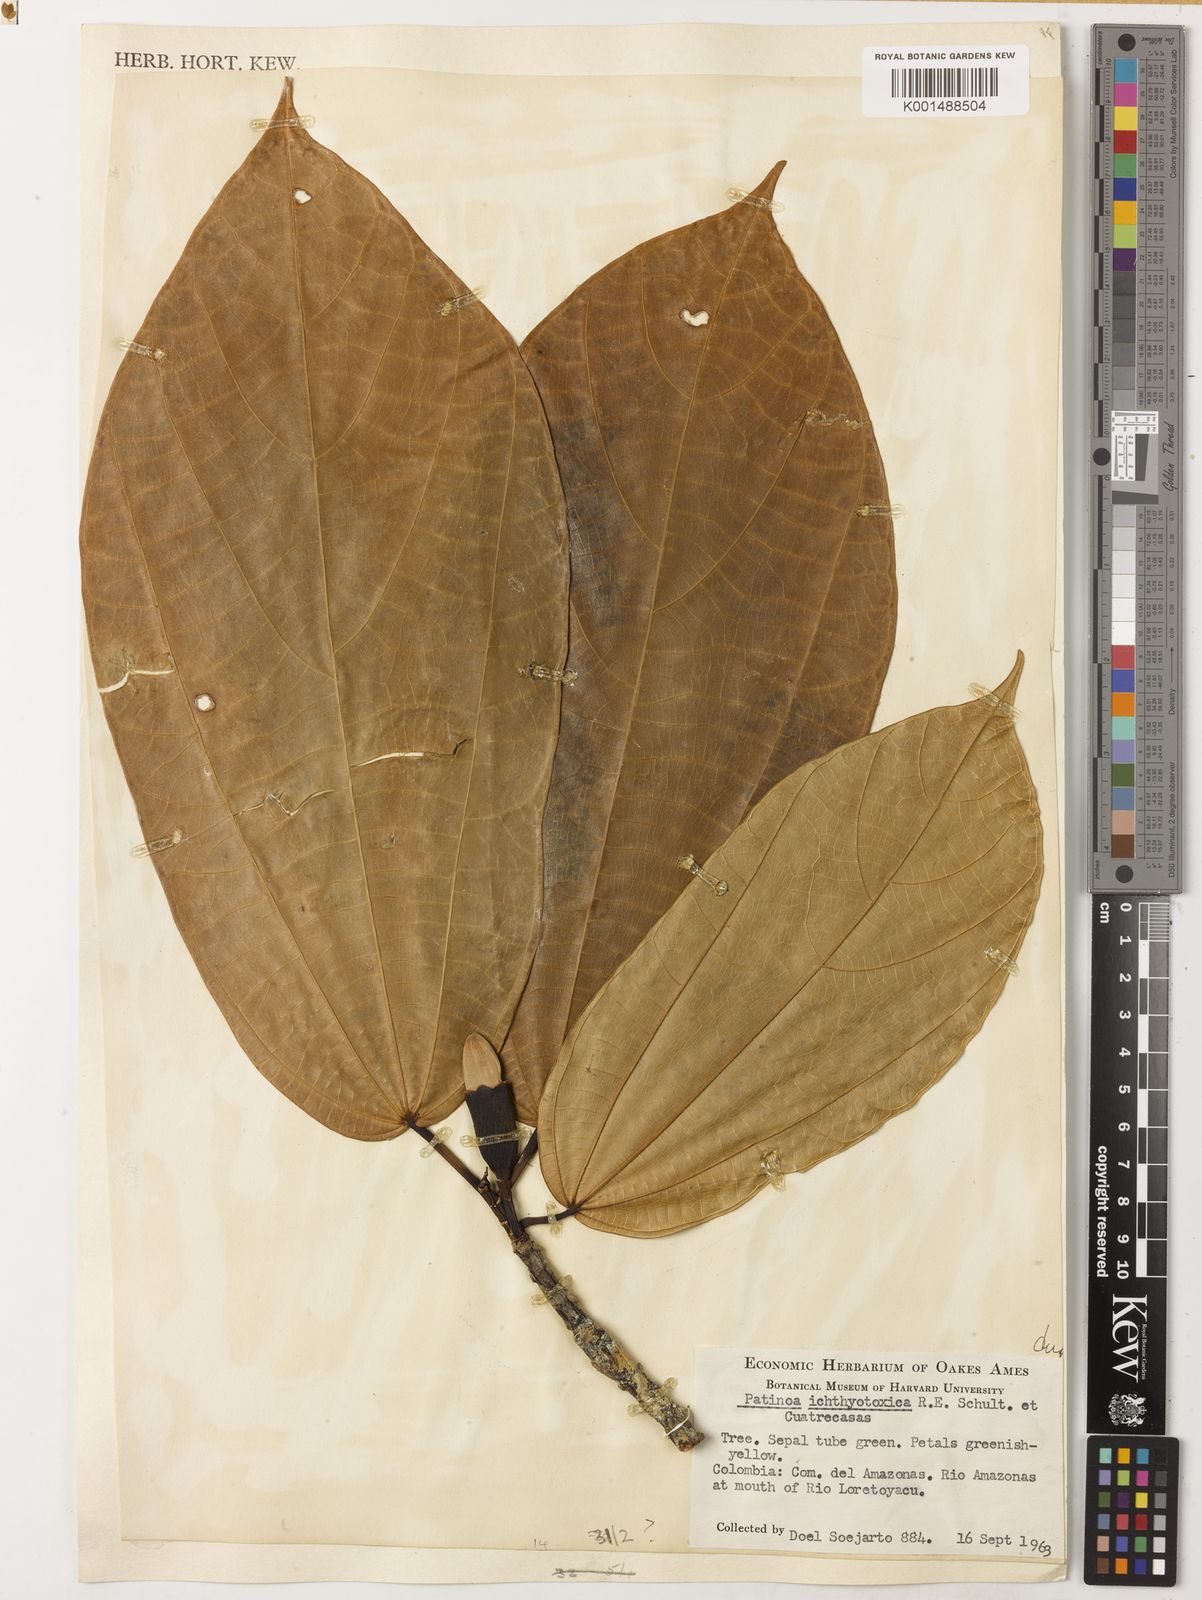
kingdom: Plantae
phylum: Tracheophyta
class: Magnoliopsida
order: Malvales
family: Malvaceae
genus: Patinoa
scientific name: Patinoa ichthyotoxica
